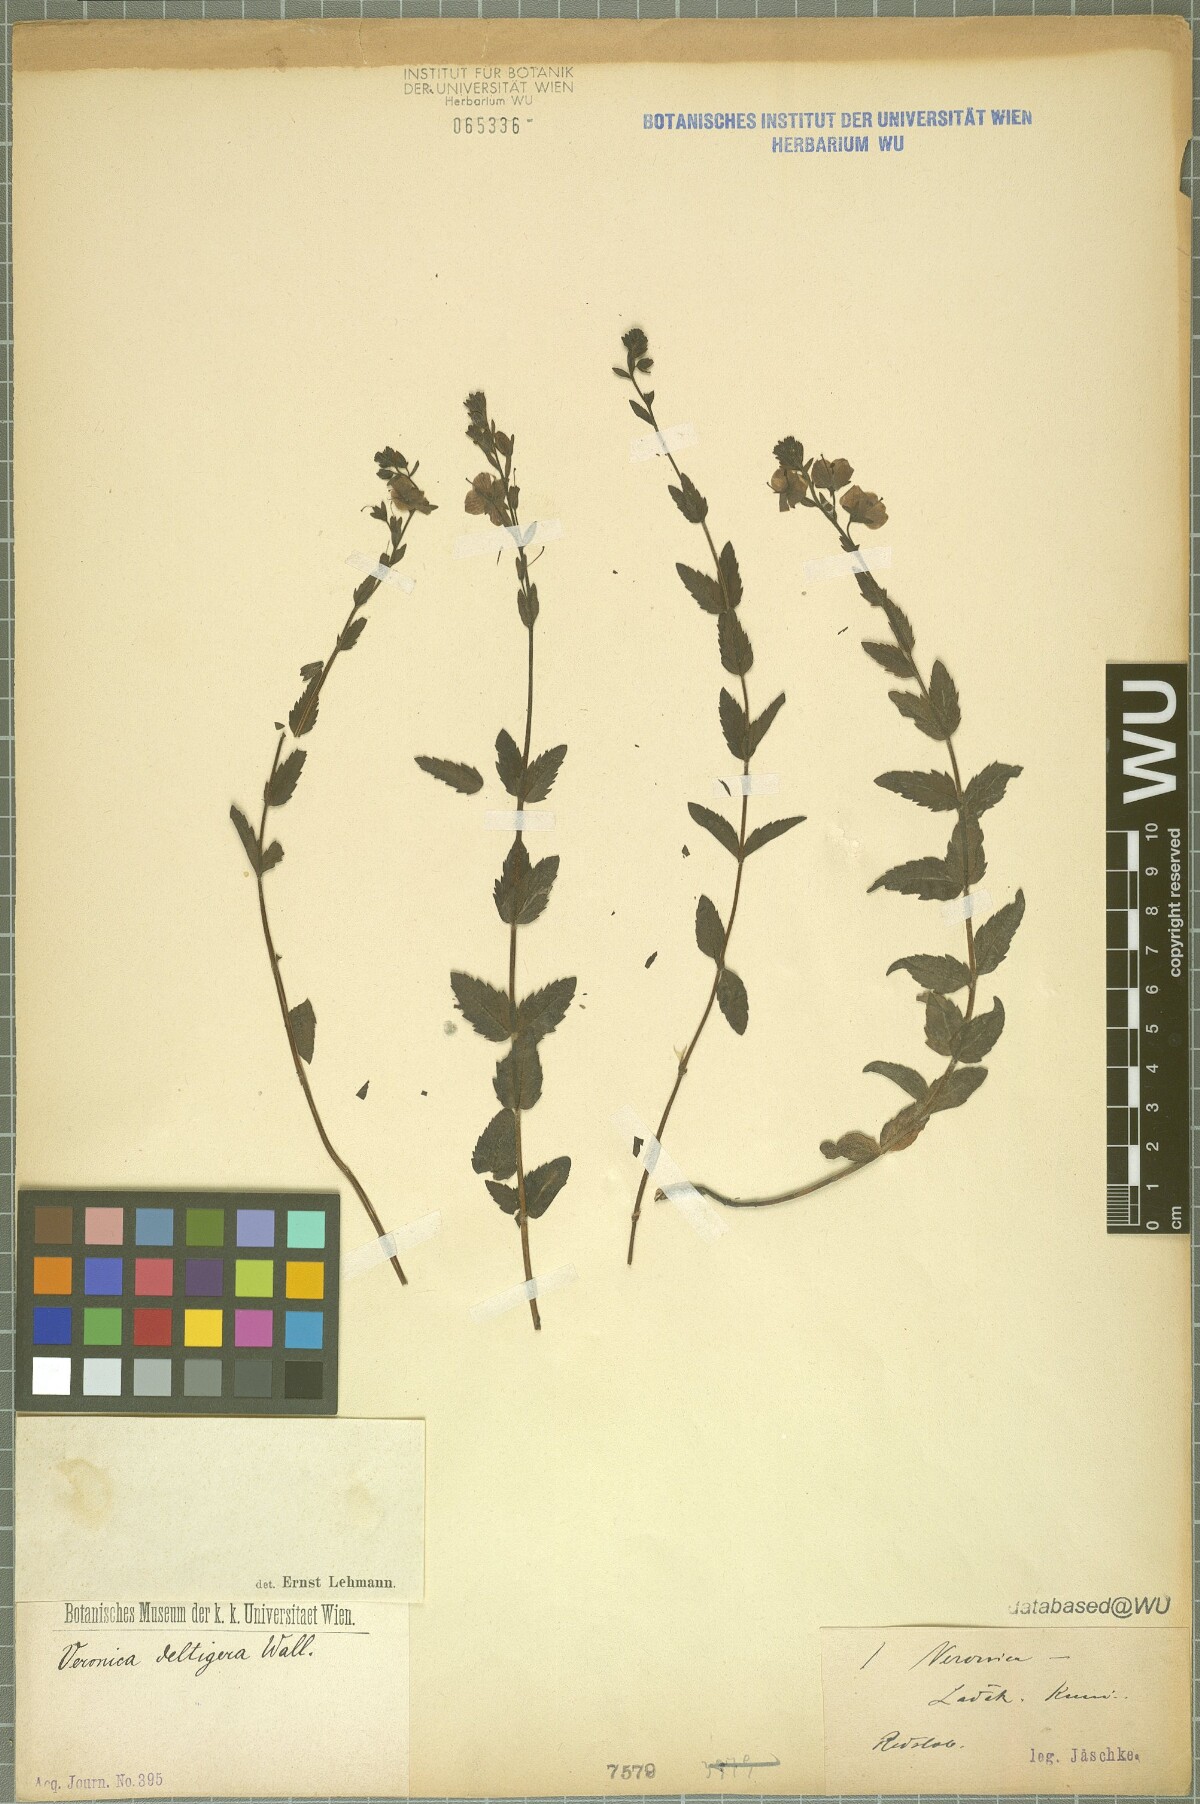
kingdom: Plantae
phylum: Tracheophyta
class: Magnoliopsida
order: Lamiales
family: Plantaginaceae
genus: Veronica
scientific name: Veronica deltigera
